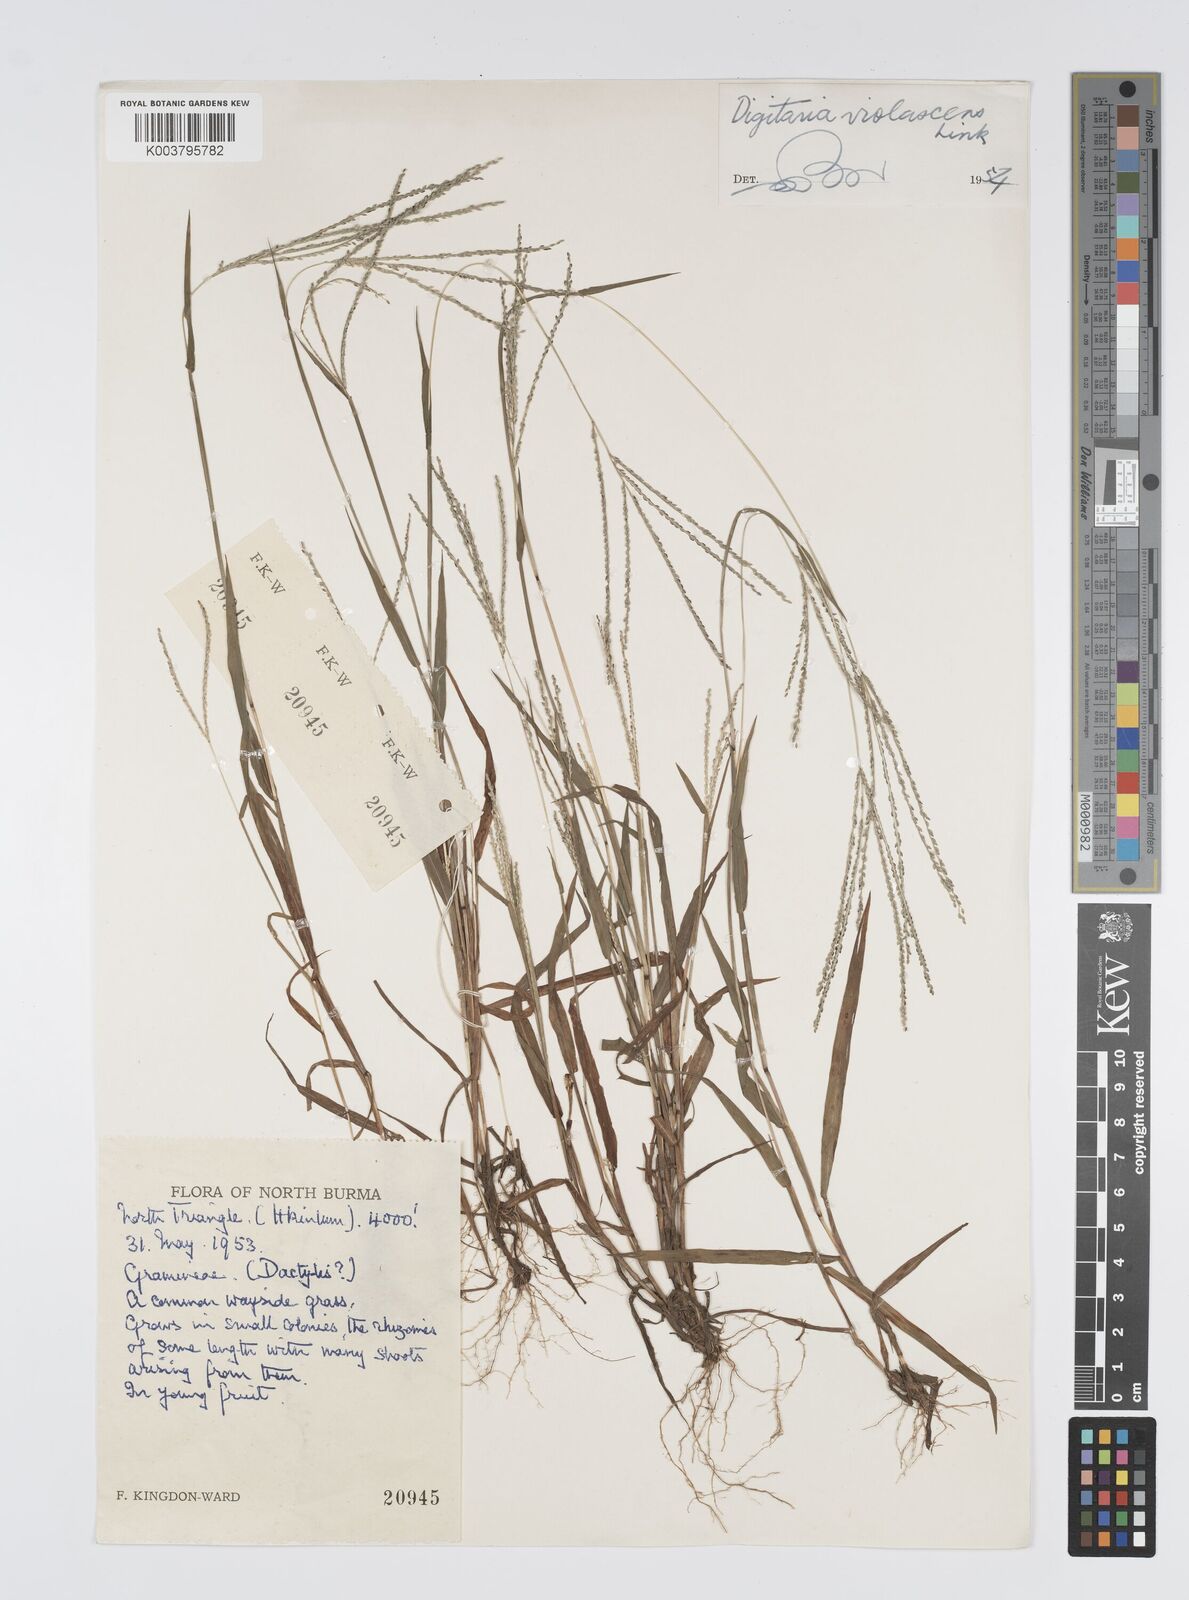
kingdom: Plantae
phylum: Tracheophyta
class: Liliopsida
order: Poales
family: Poaceae
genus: Digitaria
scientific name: Digitaria violascens
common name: Violet crabgrass
